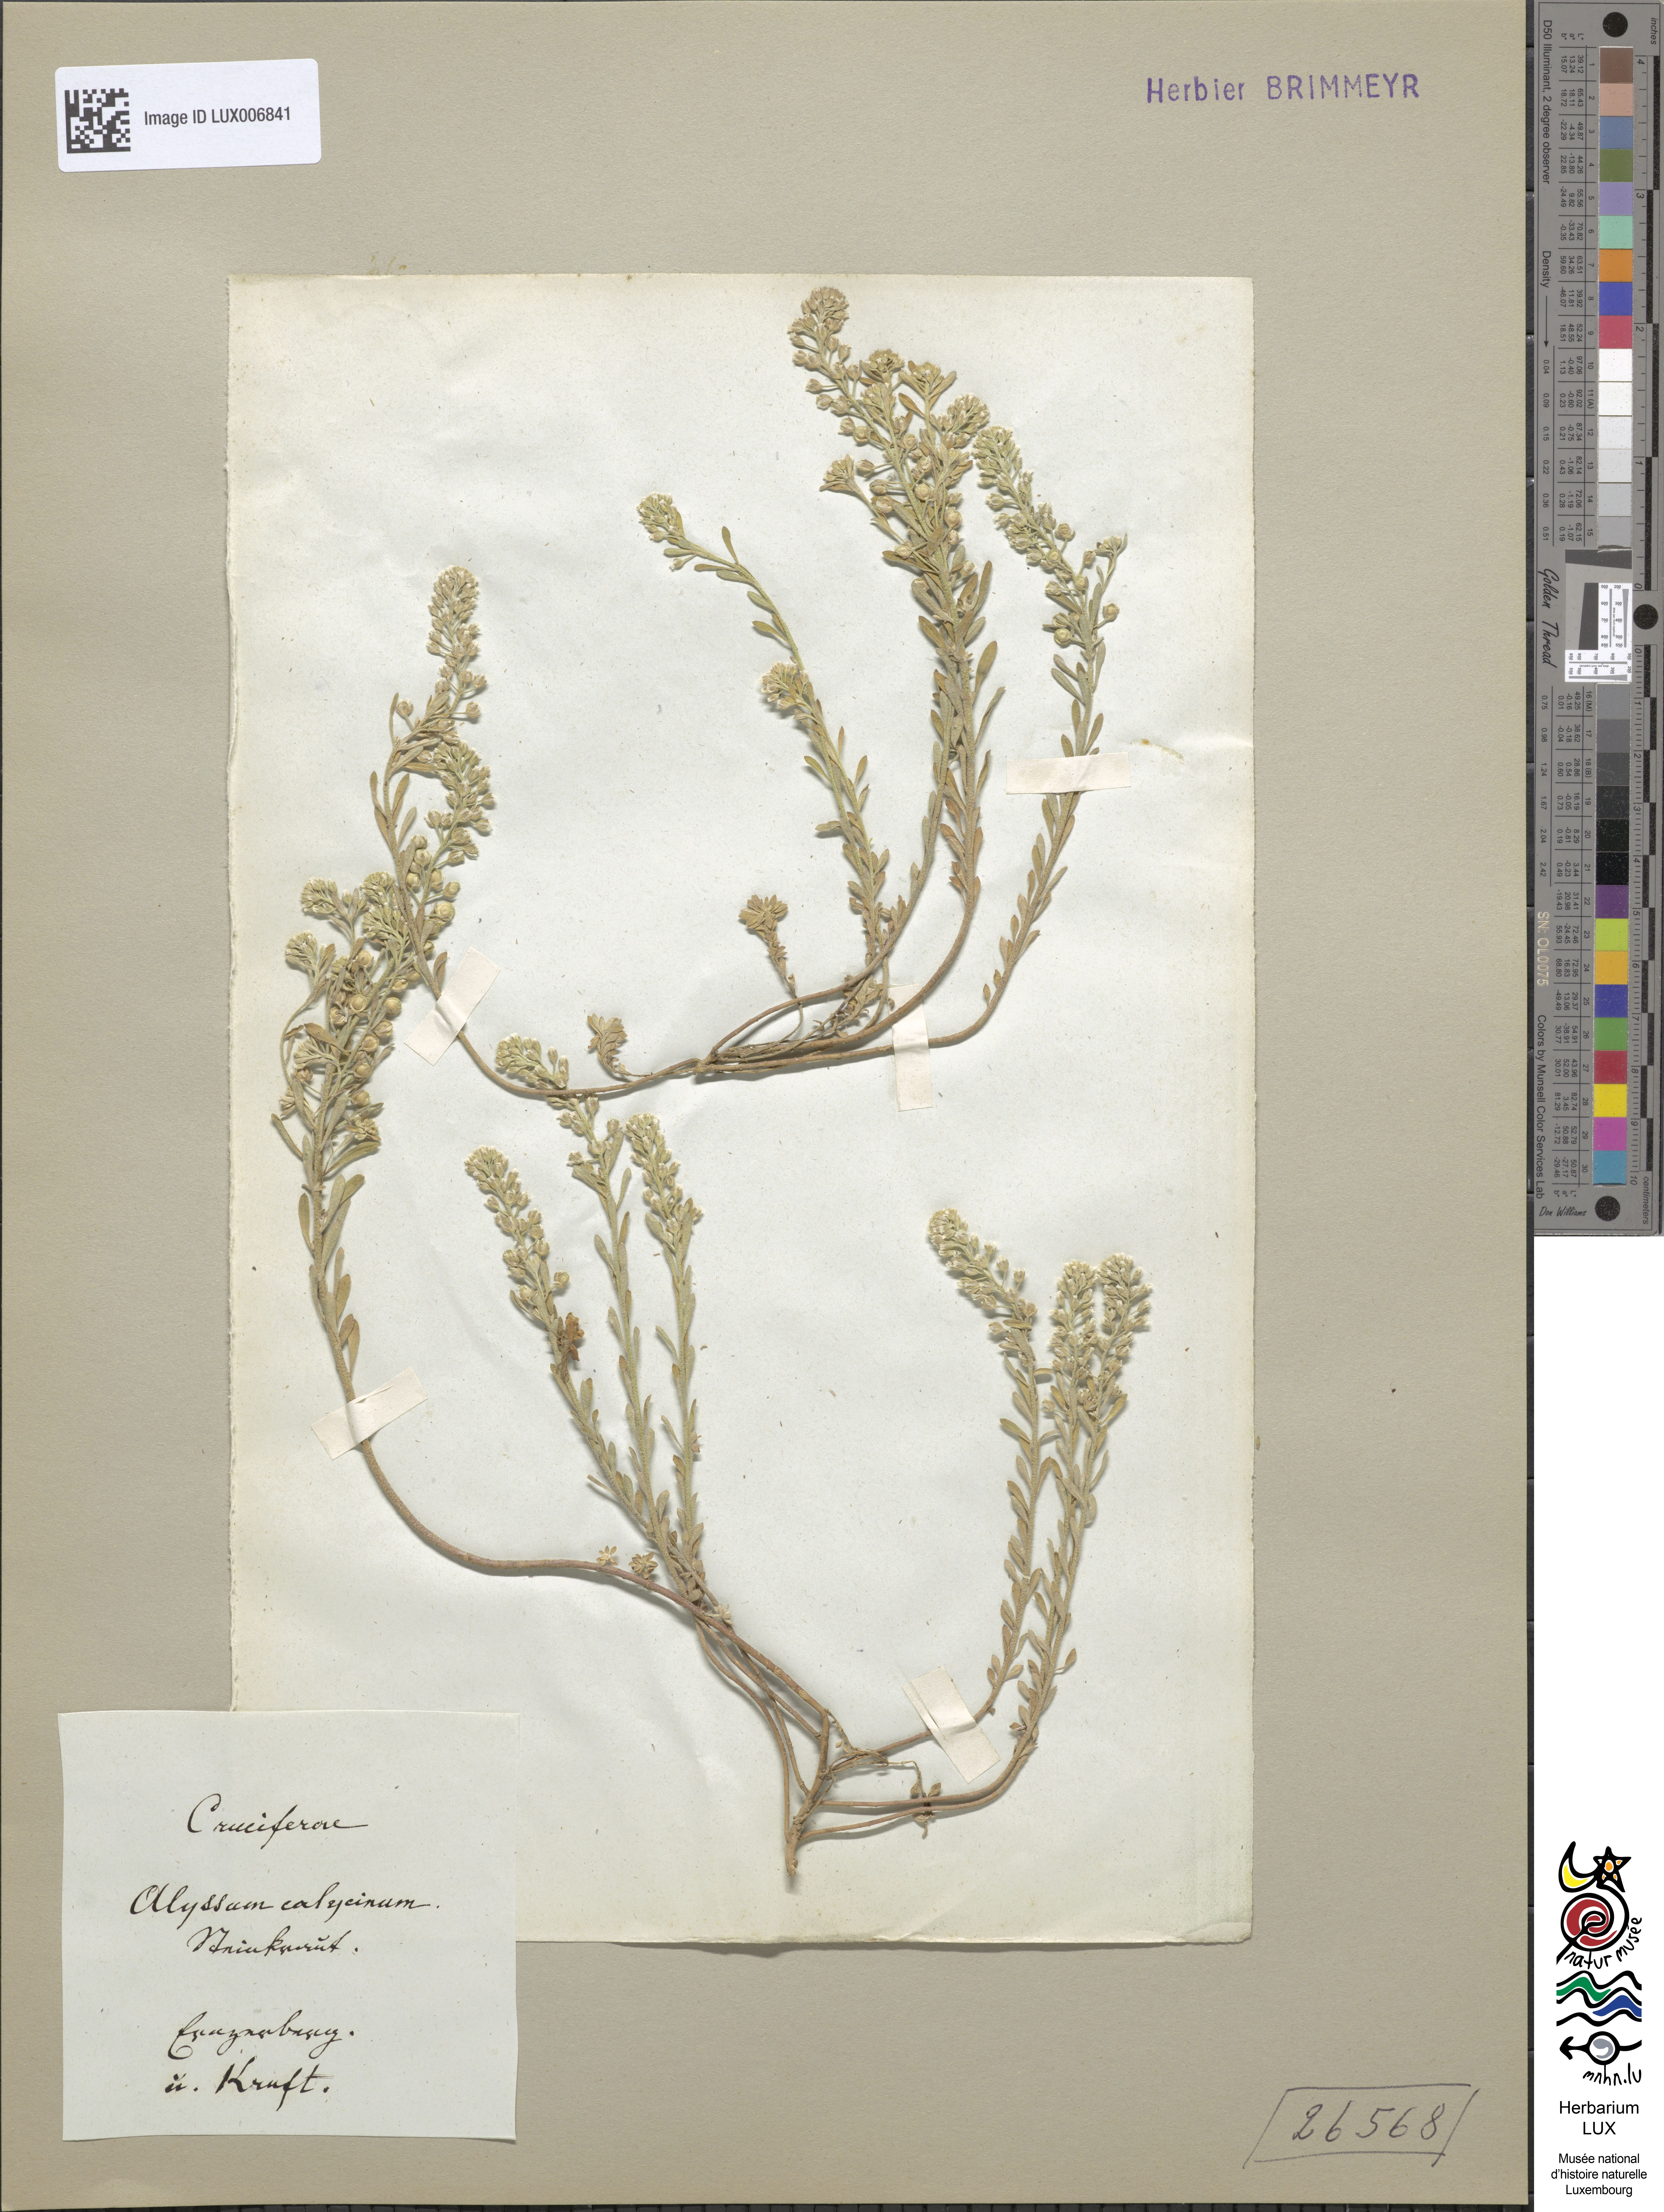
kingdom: Plantae
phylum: Tracheophyta
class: Magnoliopsida
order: Brassicales
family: Brassicaceae
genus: Alyssum
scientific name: Alyssum alyssoides
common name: Small alison
